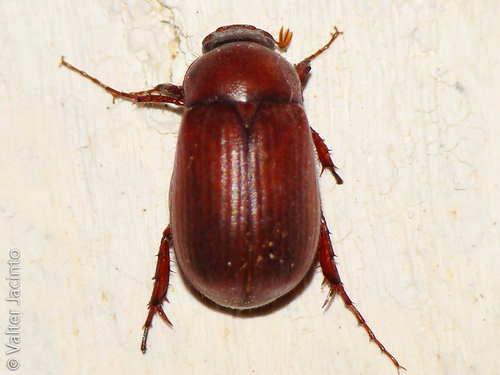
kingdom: Animalia
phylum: Arthropoda
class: Insecta
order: Coleoptera
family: Scarabaeidae
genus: Triodontella
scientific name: Triodontella castillana
